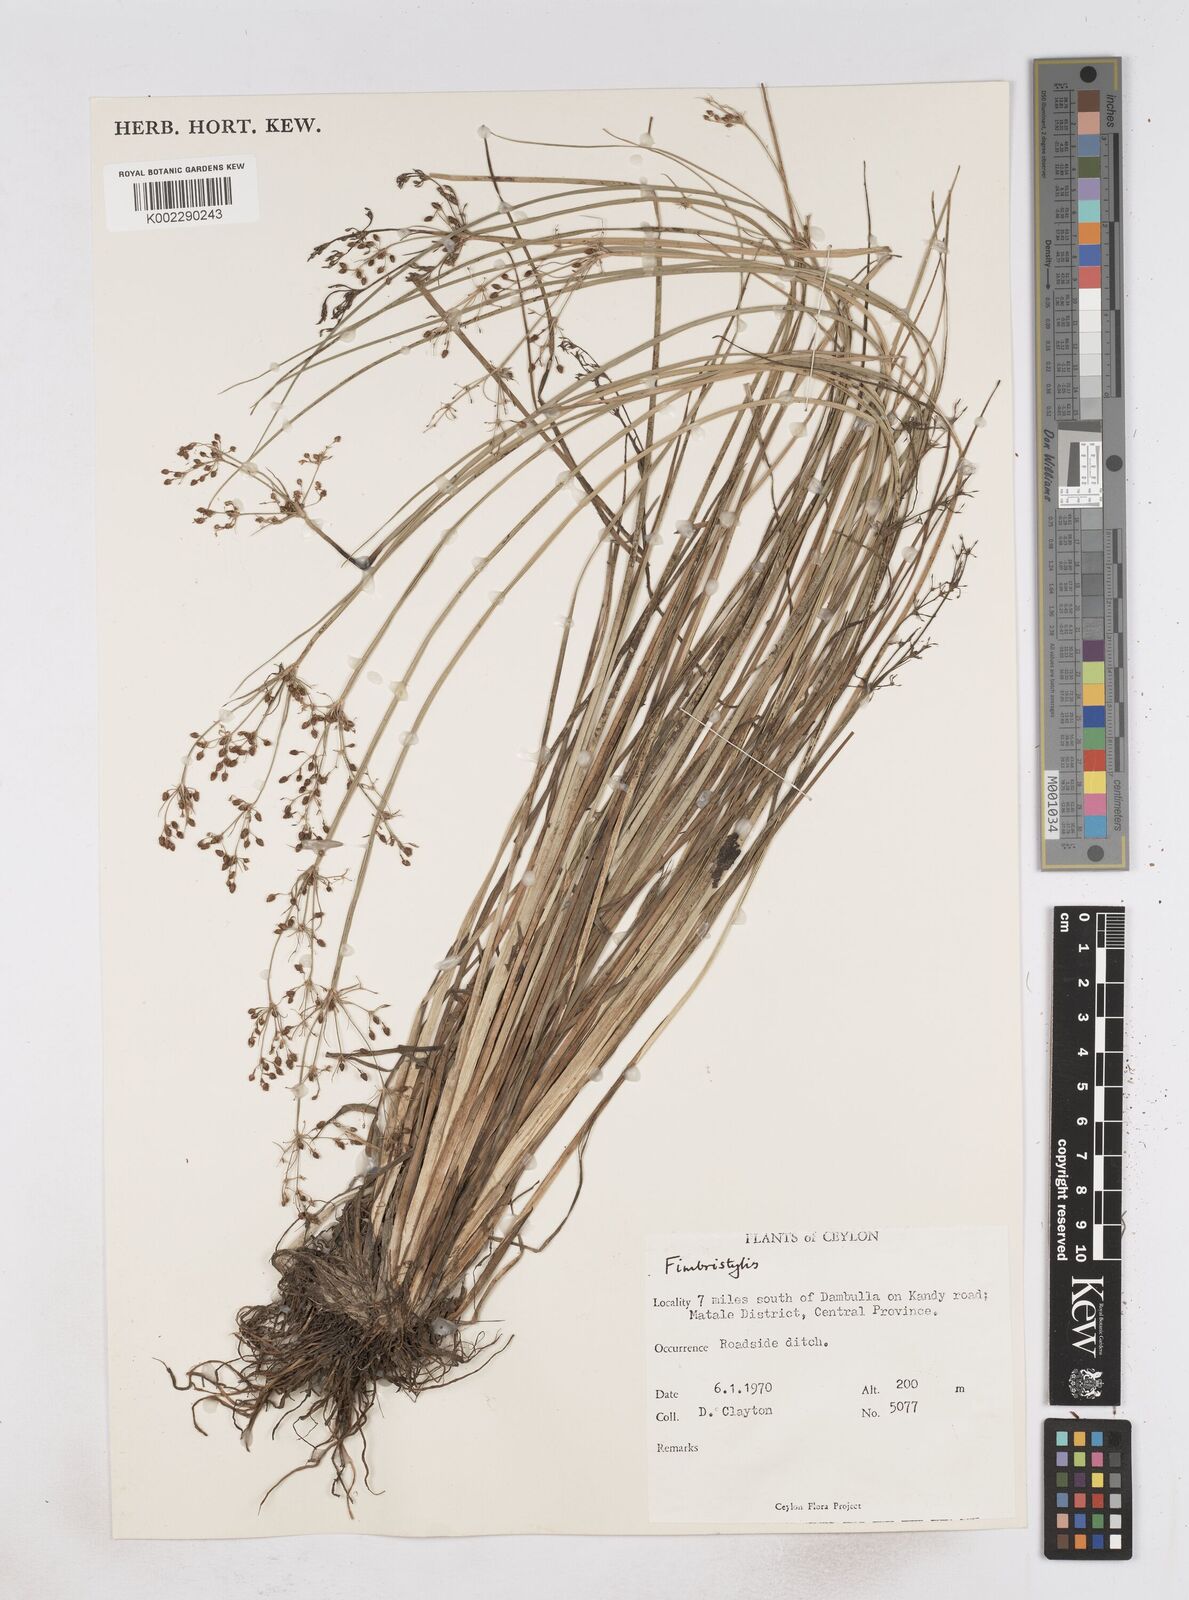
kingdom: Plantae
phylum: Tracheophyta
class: Liliopsida
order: Poales
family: Cyperaceae
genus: Fimbristylis
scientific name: Fimbristylis
